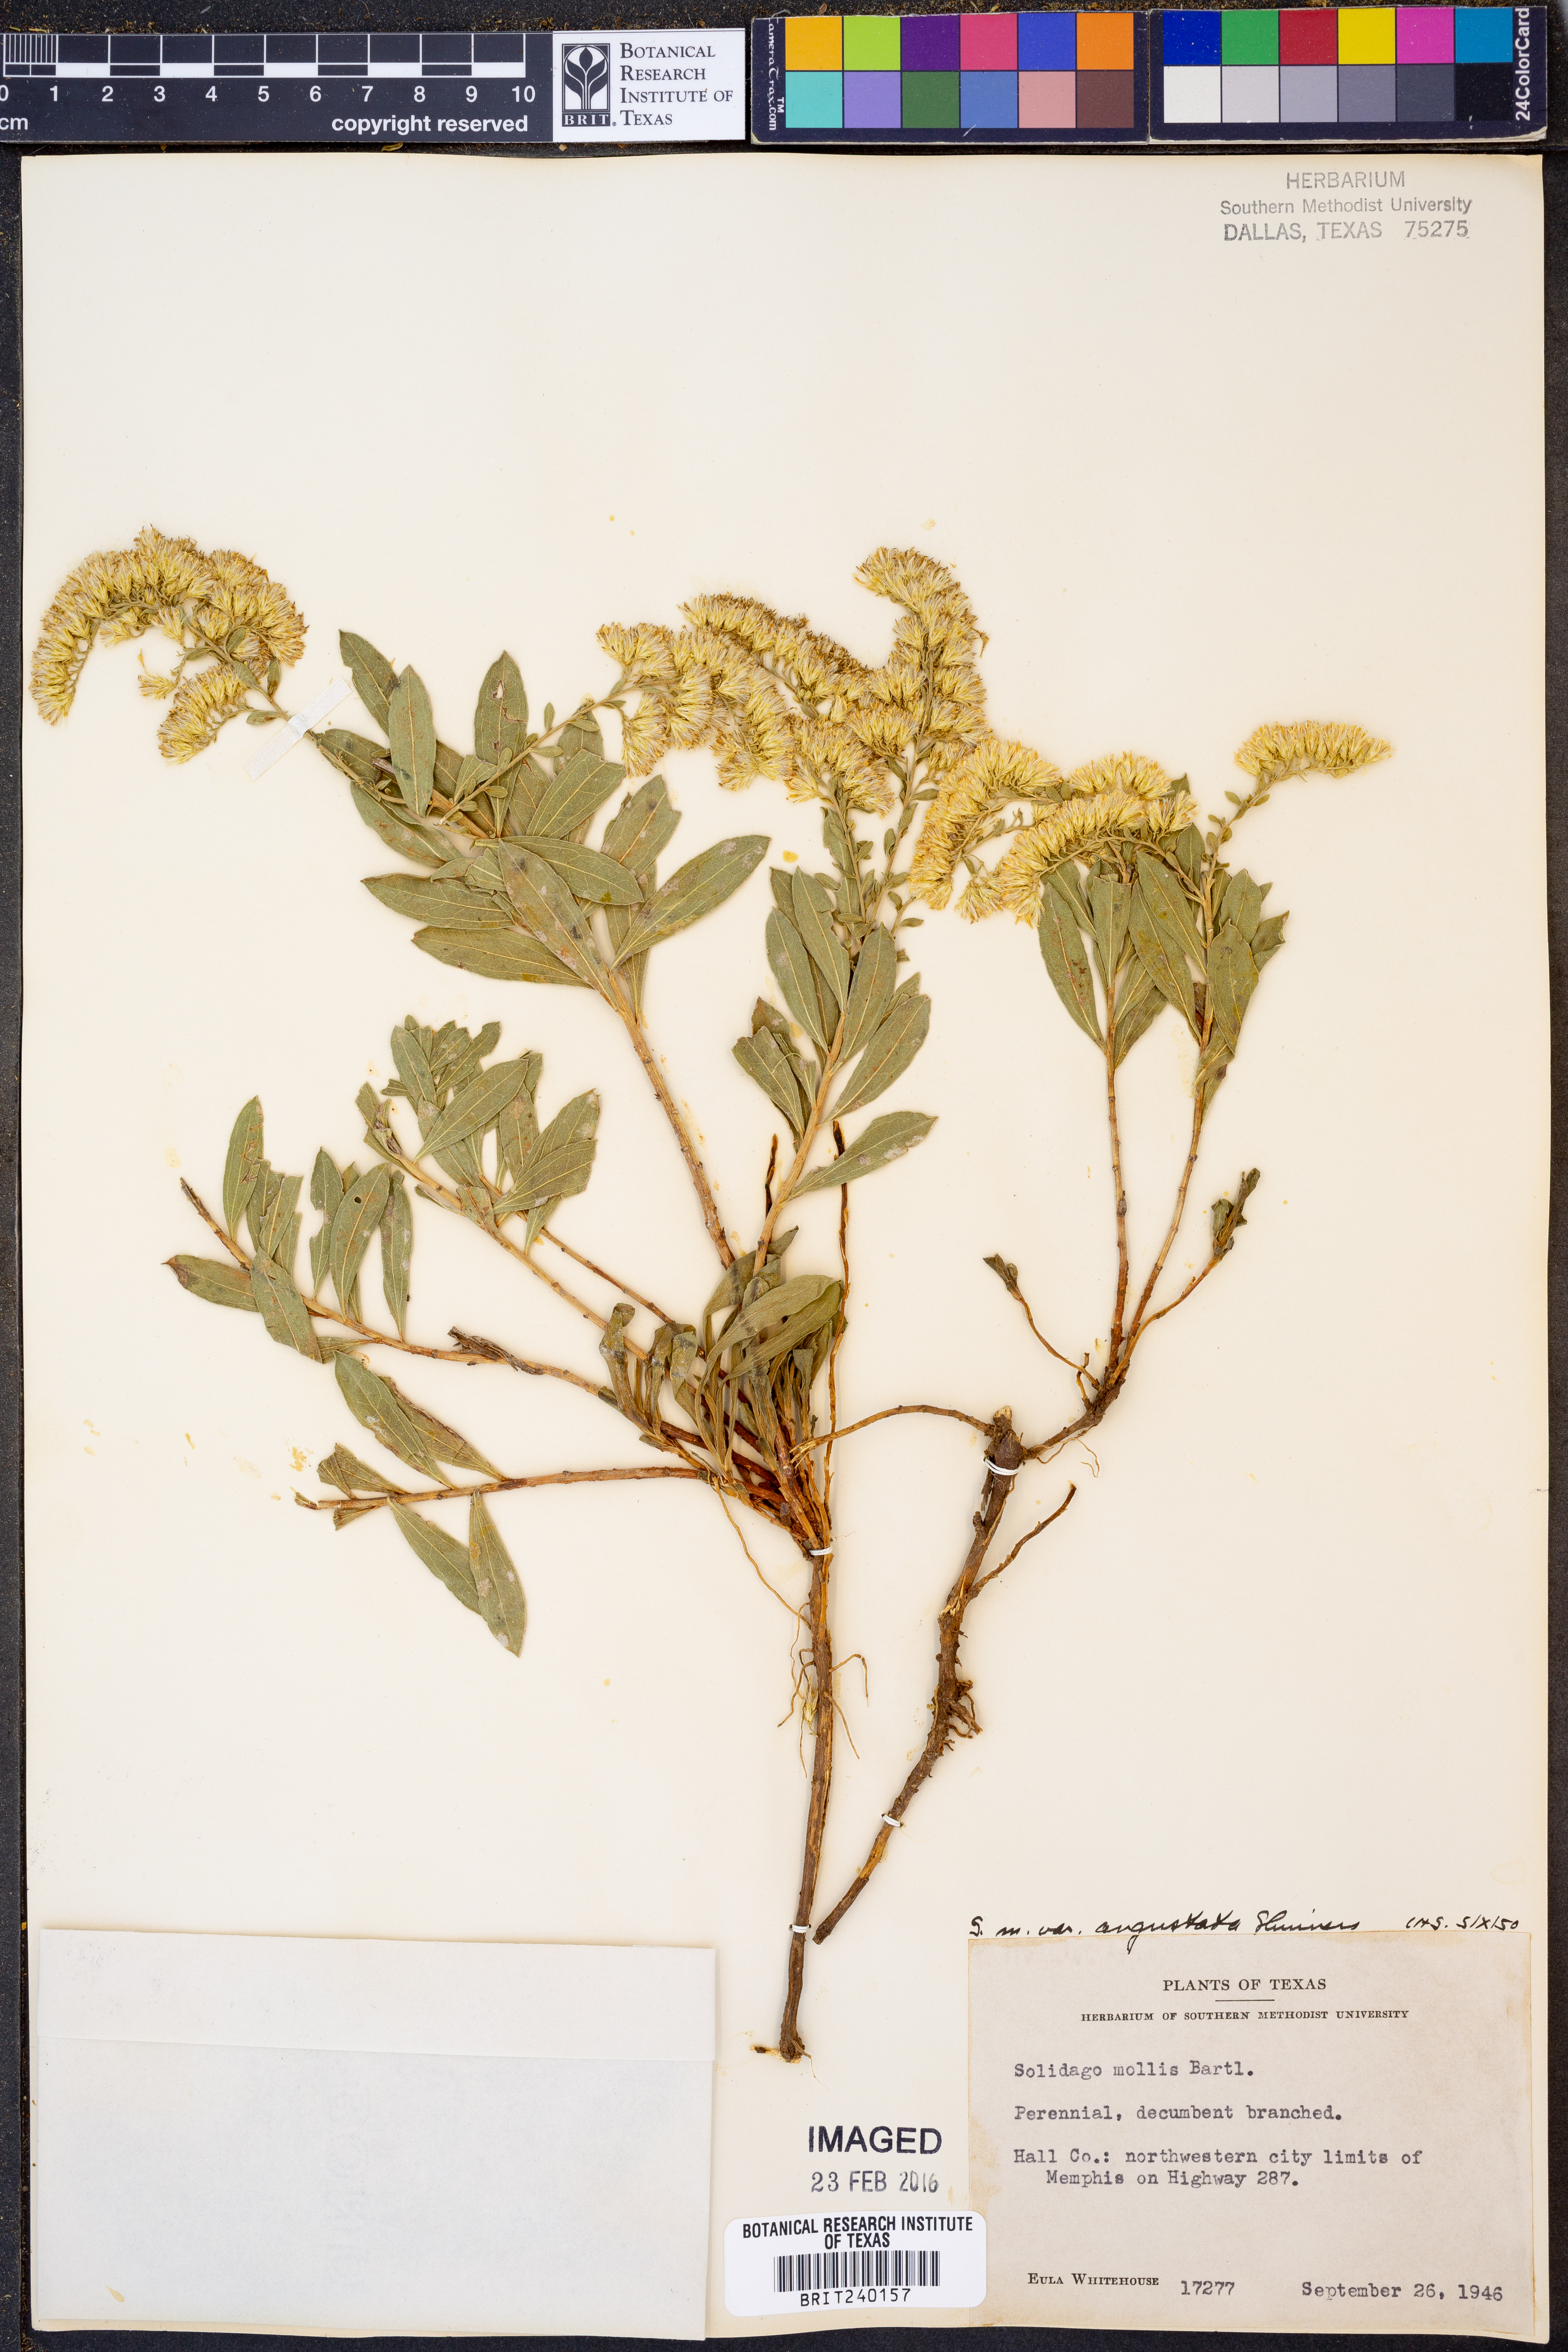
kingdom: Plantae
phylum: Tracheophyta
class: Magnoliopsida
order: Asterales
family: Asteraceae
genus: Solidago
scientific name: Solidago mollis
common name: Ashly goldenrod
